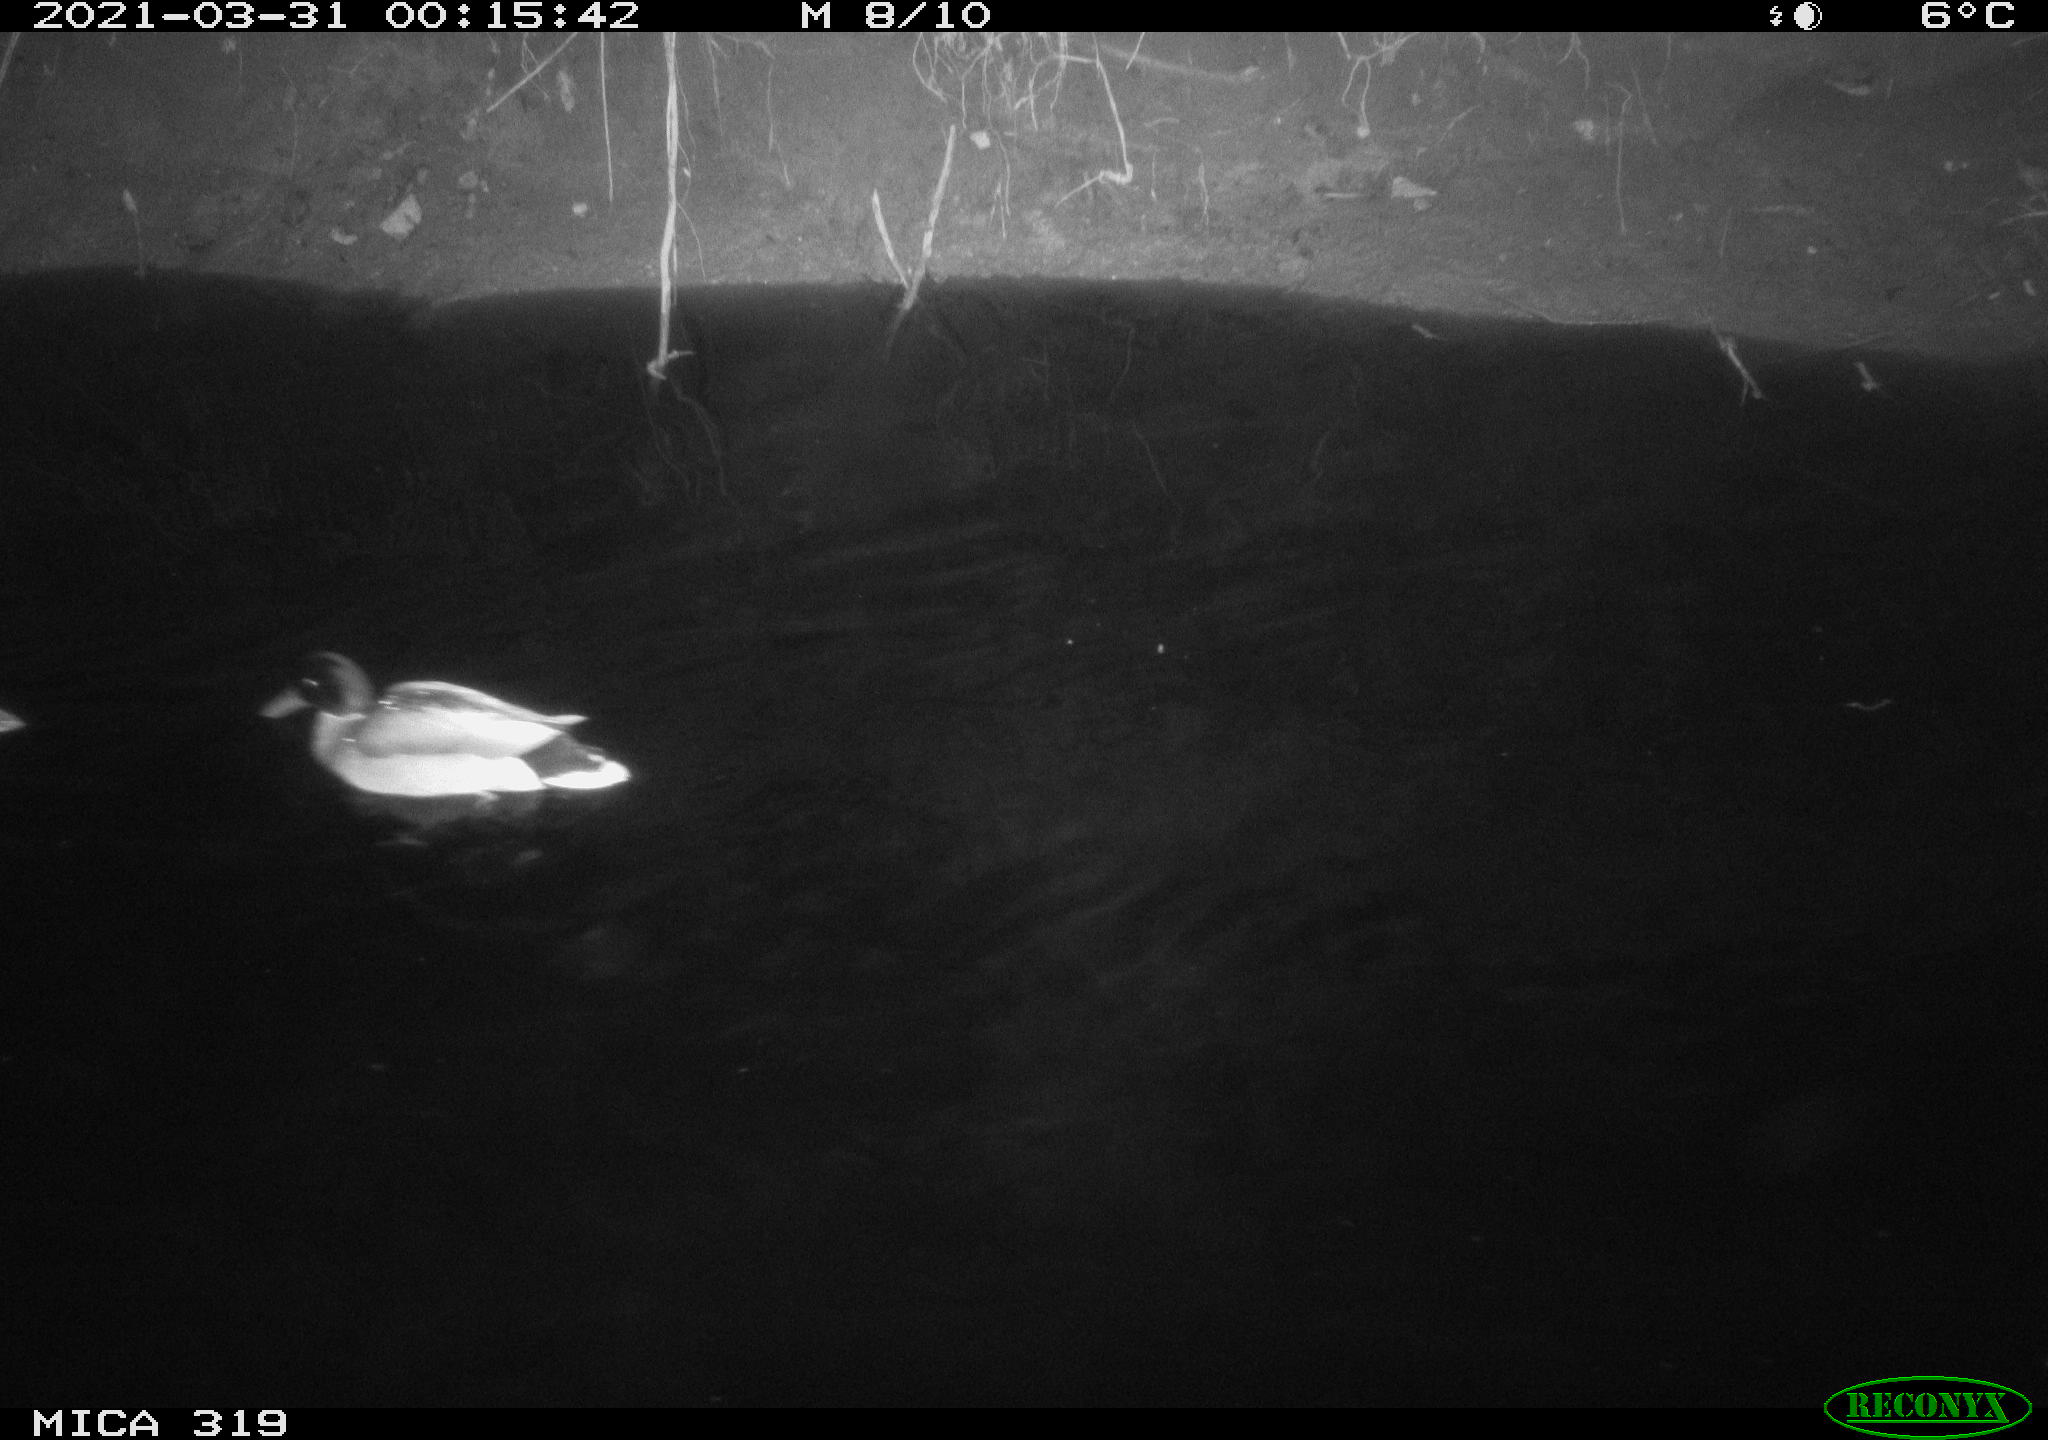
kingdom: Animalia
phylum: Chordata
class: Aves
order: Anseriformes
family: Anatidae
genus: Anas
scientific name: Anas platyrhynchos
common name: Mallard
